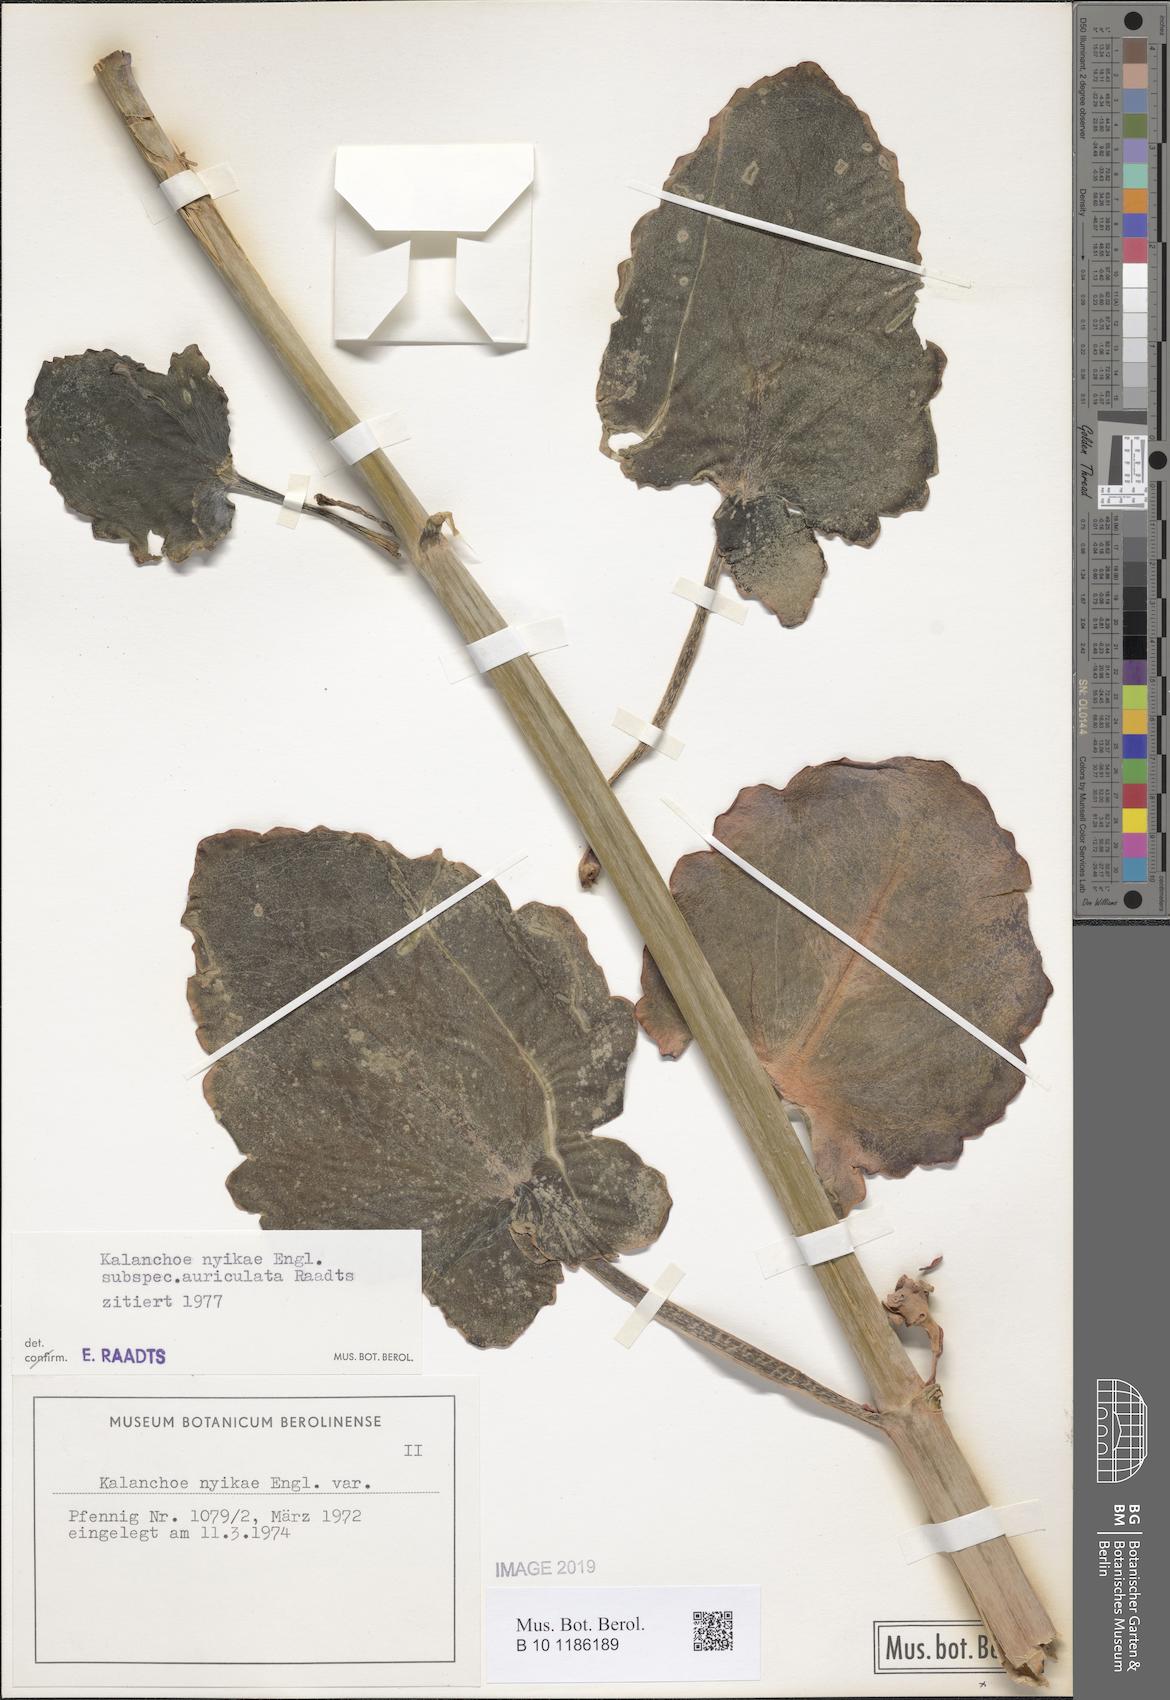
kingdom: Plantae
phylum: Tracheophyta
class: Magnoliopsida
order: Saxifragales
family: Crassulaceae
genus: Kalanchoe
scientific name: Kalanchoe auriculata
